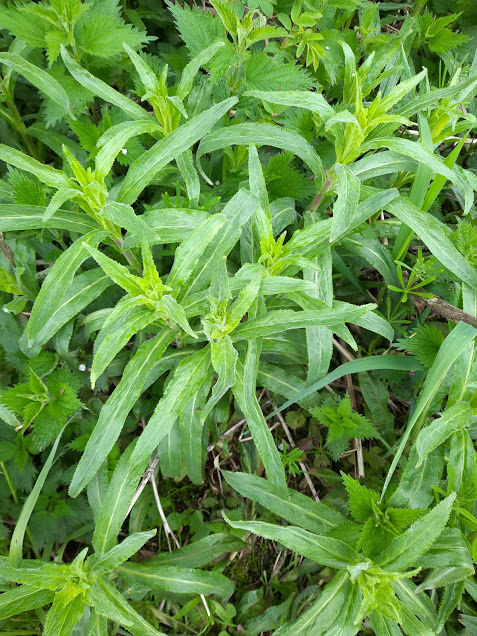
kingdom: Fungi
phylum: Basidiomycota
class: Pucciniomycetes
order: Pucciniales
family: Pucciniaceae
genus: Puccinia
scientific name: Puccinia pulverulenta
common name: dueurt-tvecellerust
